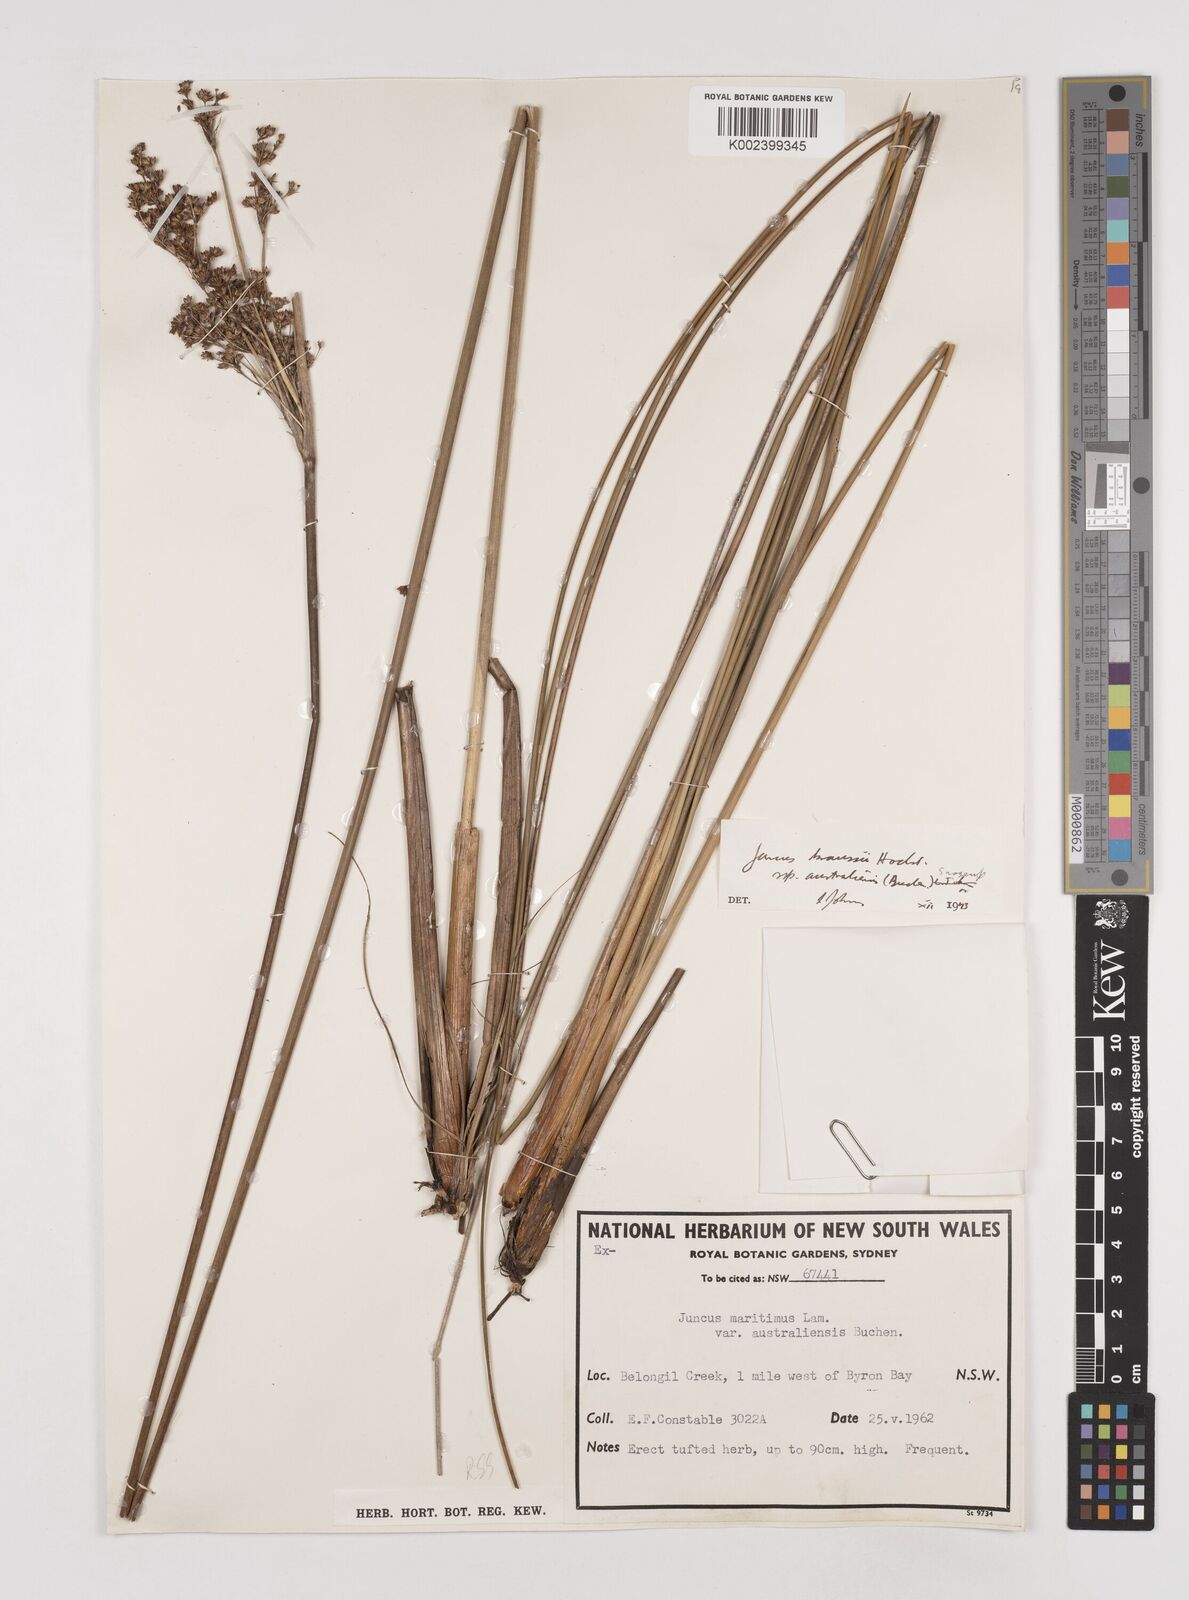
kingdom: Plantae
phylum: Tracheophyta
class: Liliopsida
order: Poales
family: Juncaceae
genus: Juncus
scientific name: Juncus kraussii
